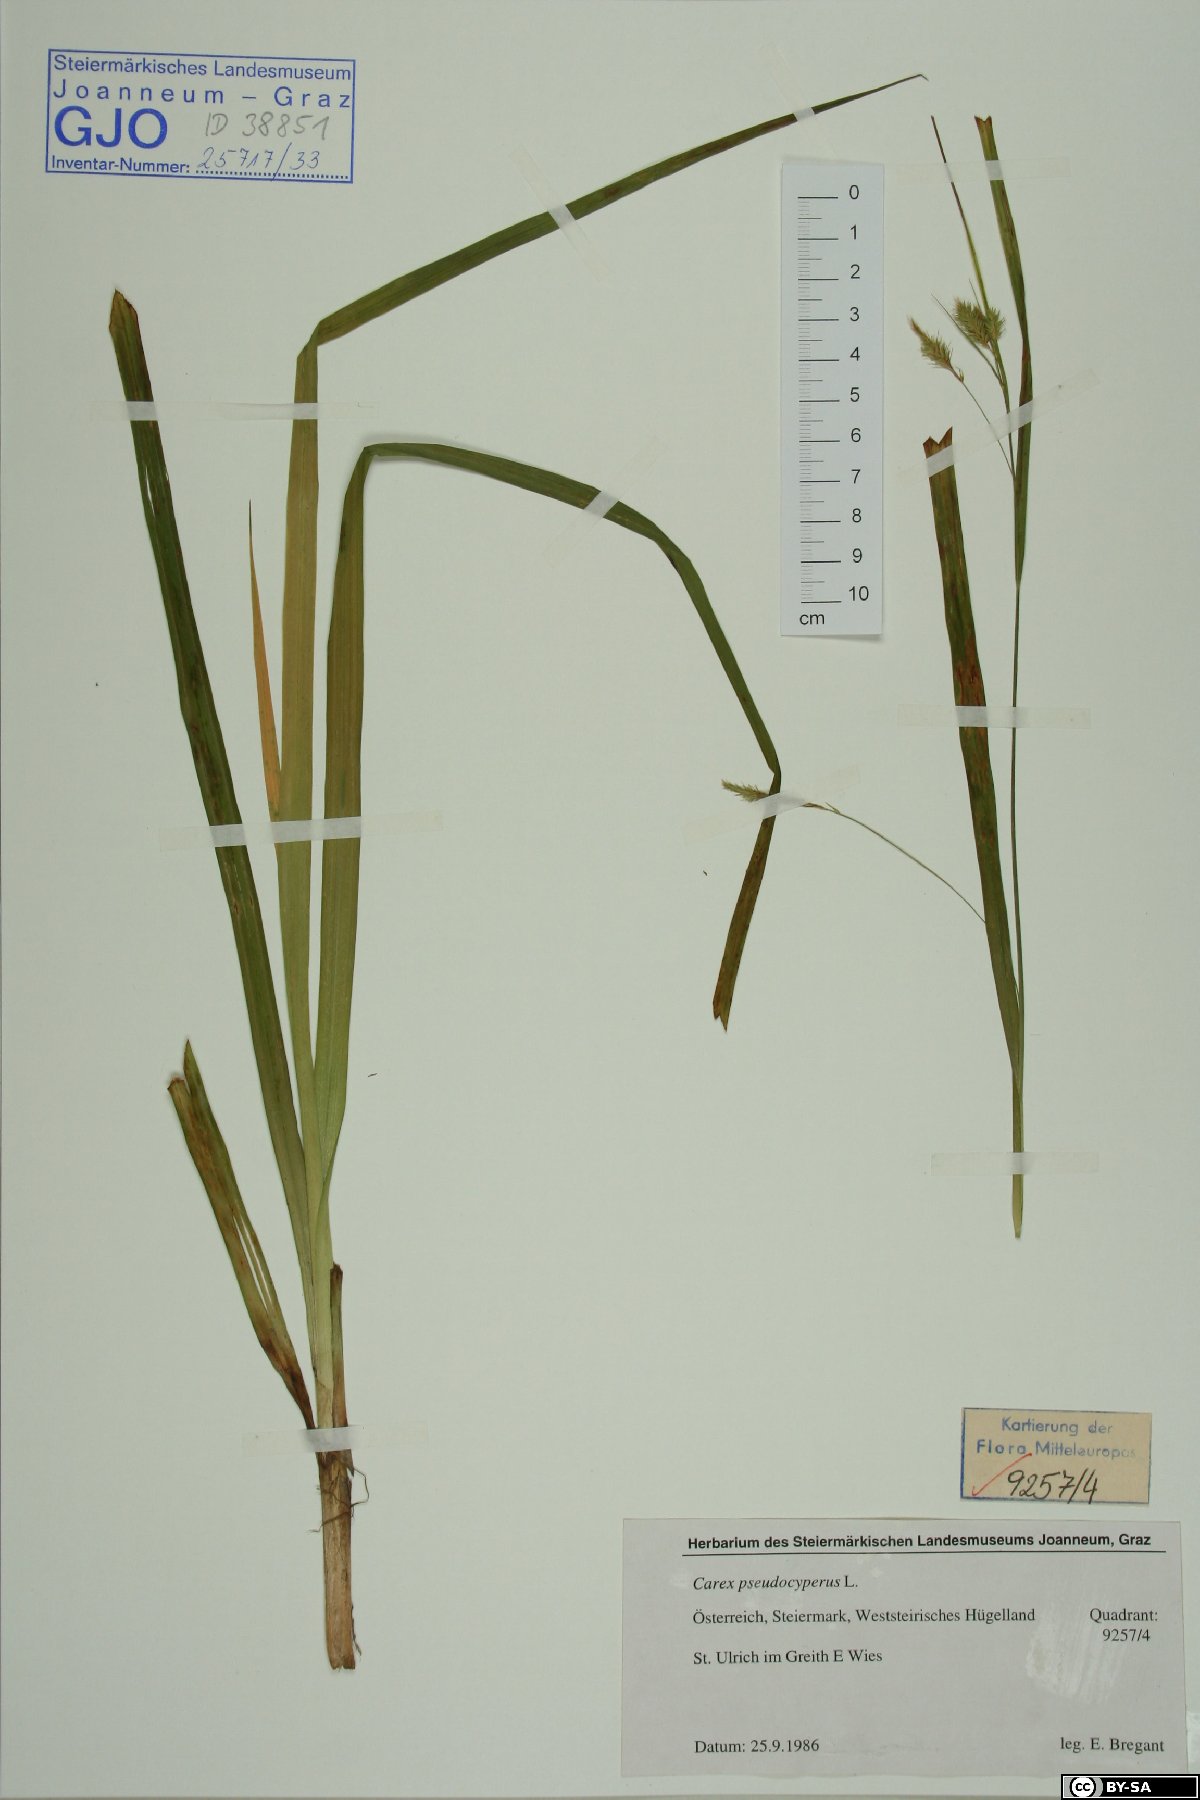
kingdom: Plantae
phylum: Tracheophyta
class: Liliopsida
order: Poales
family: Cyperaceae
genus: Carex
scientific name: Carex pseudocyperus
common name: Cyperus sedge
